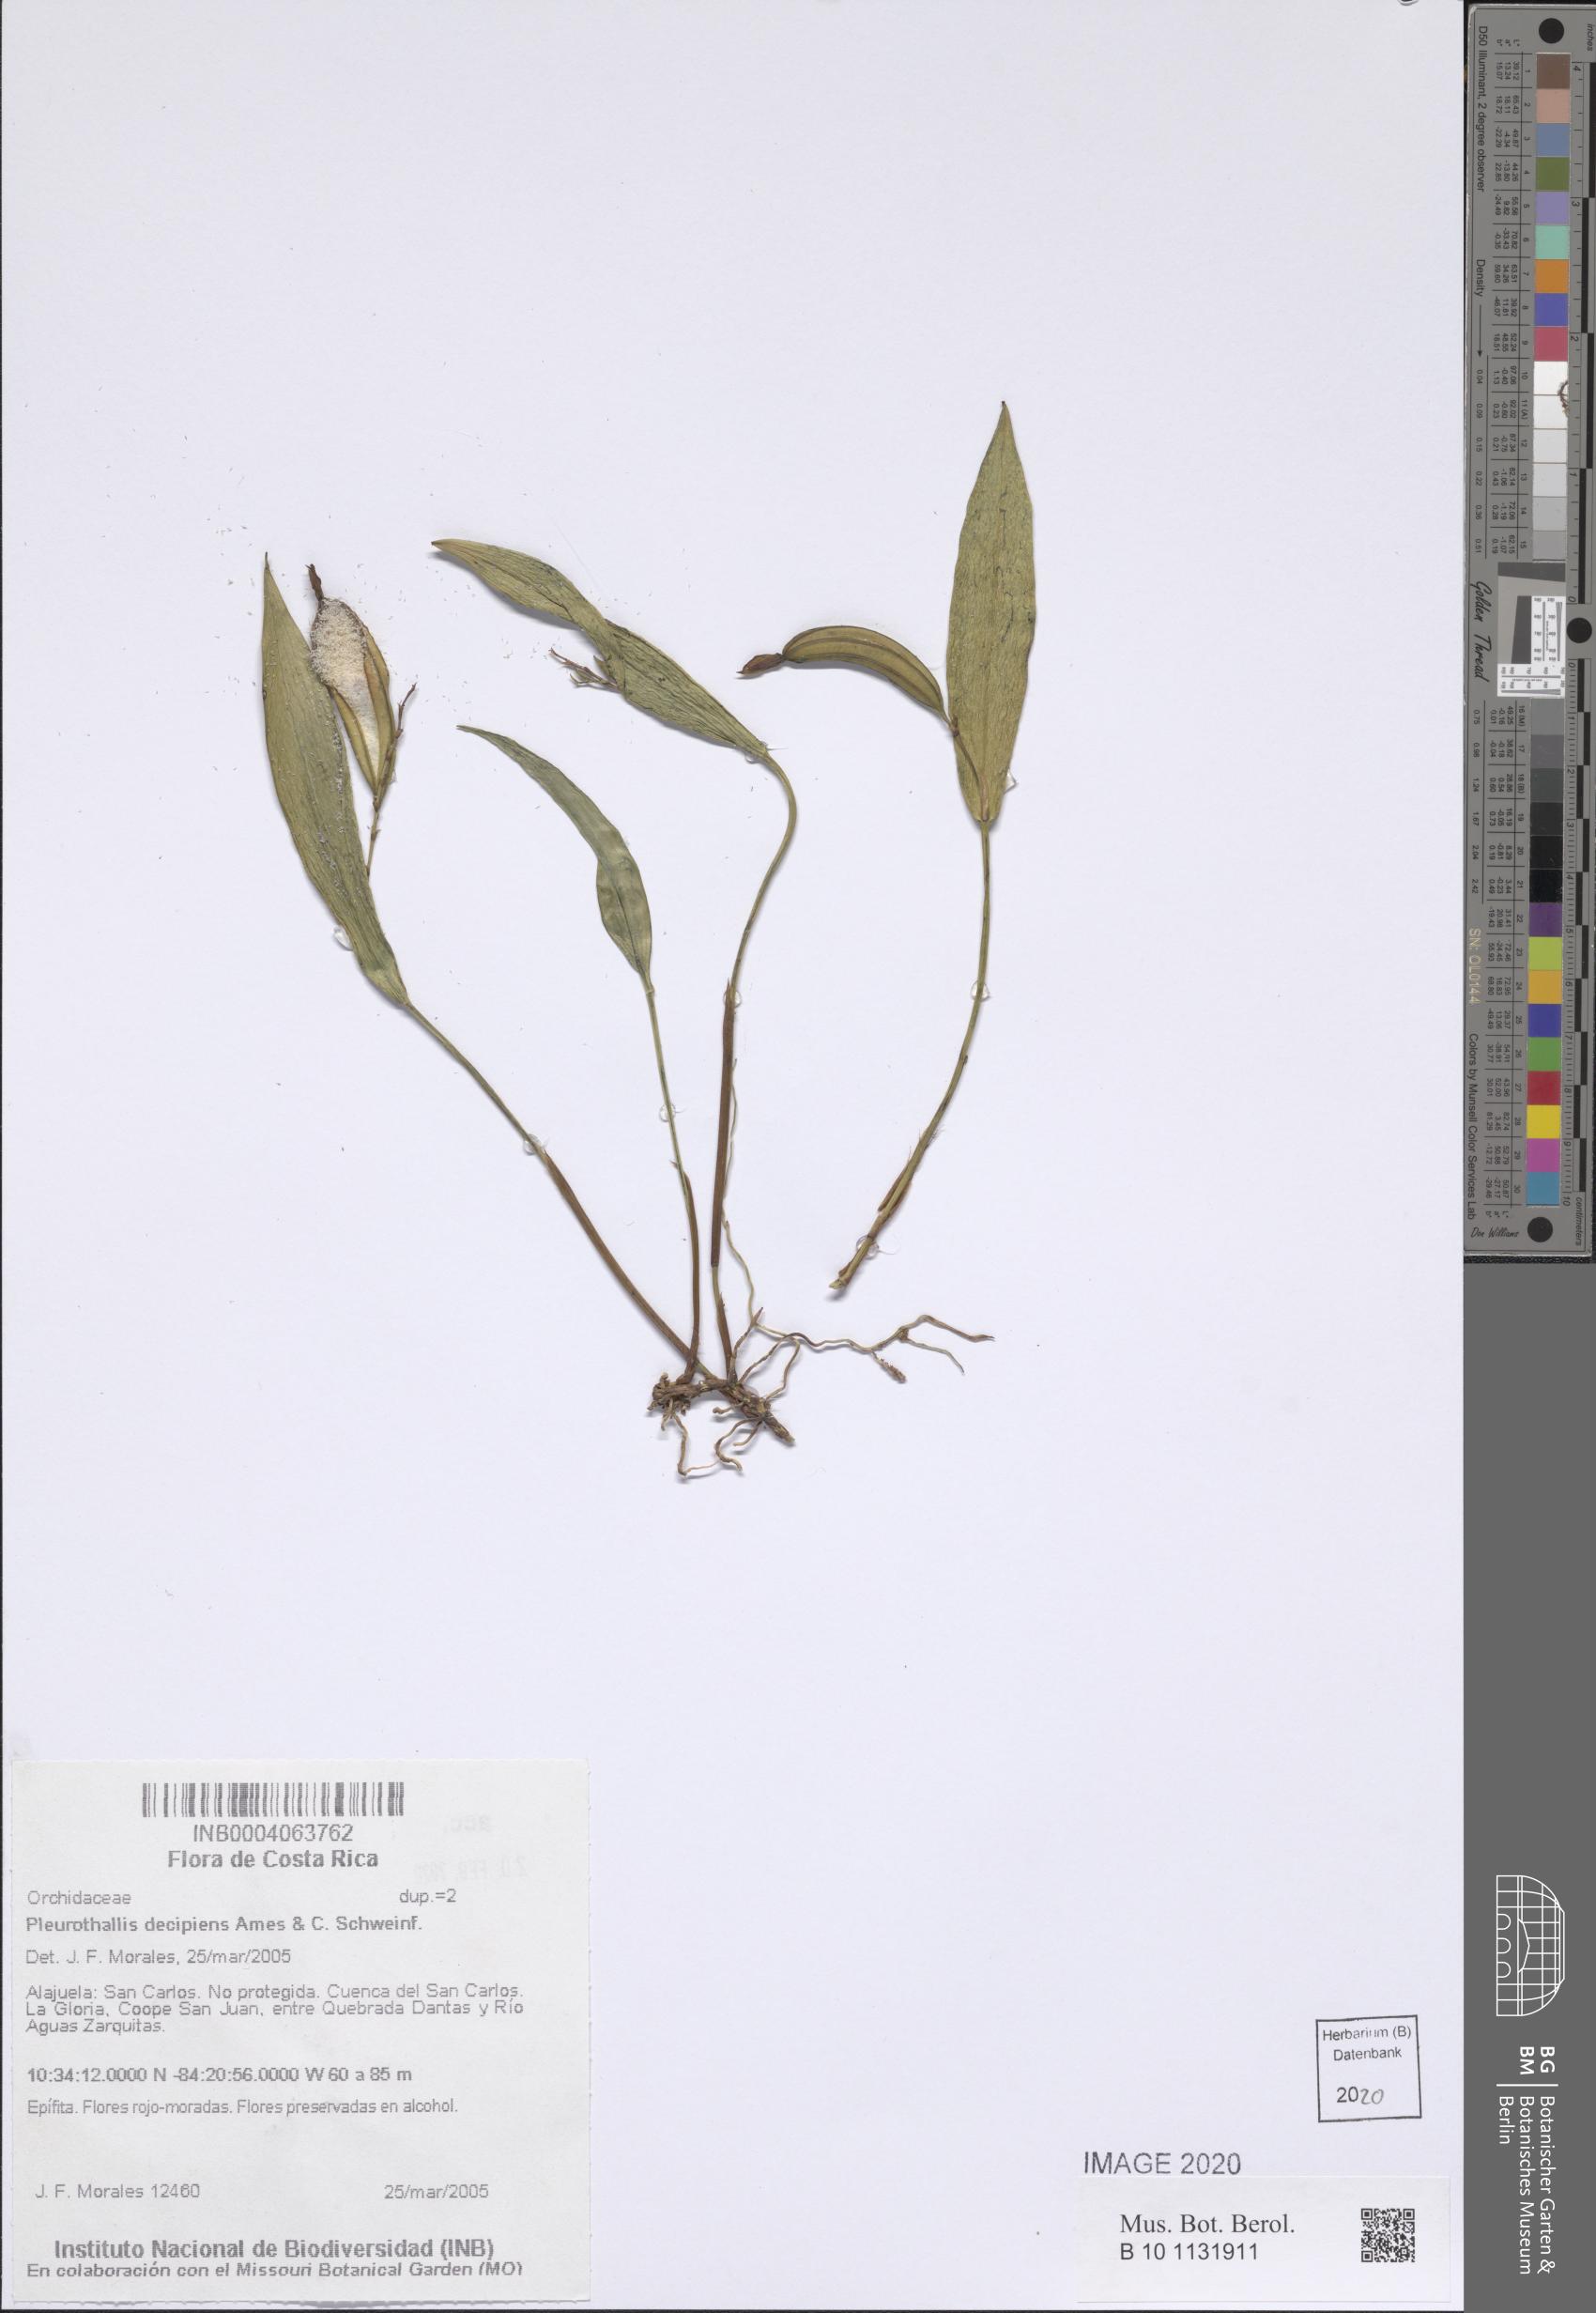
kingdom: Plantae
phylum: Tracheophyta
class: Liliopsida
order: Asparagales
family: Orchidaceae
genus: Acianthera
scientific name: Acianthera decipiens
